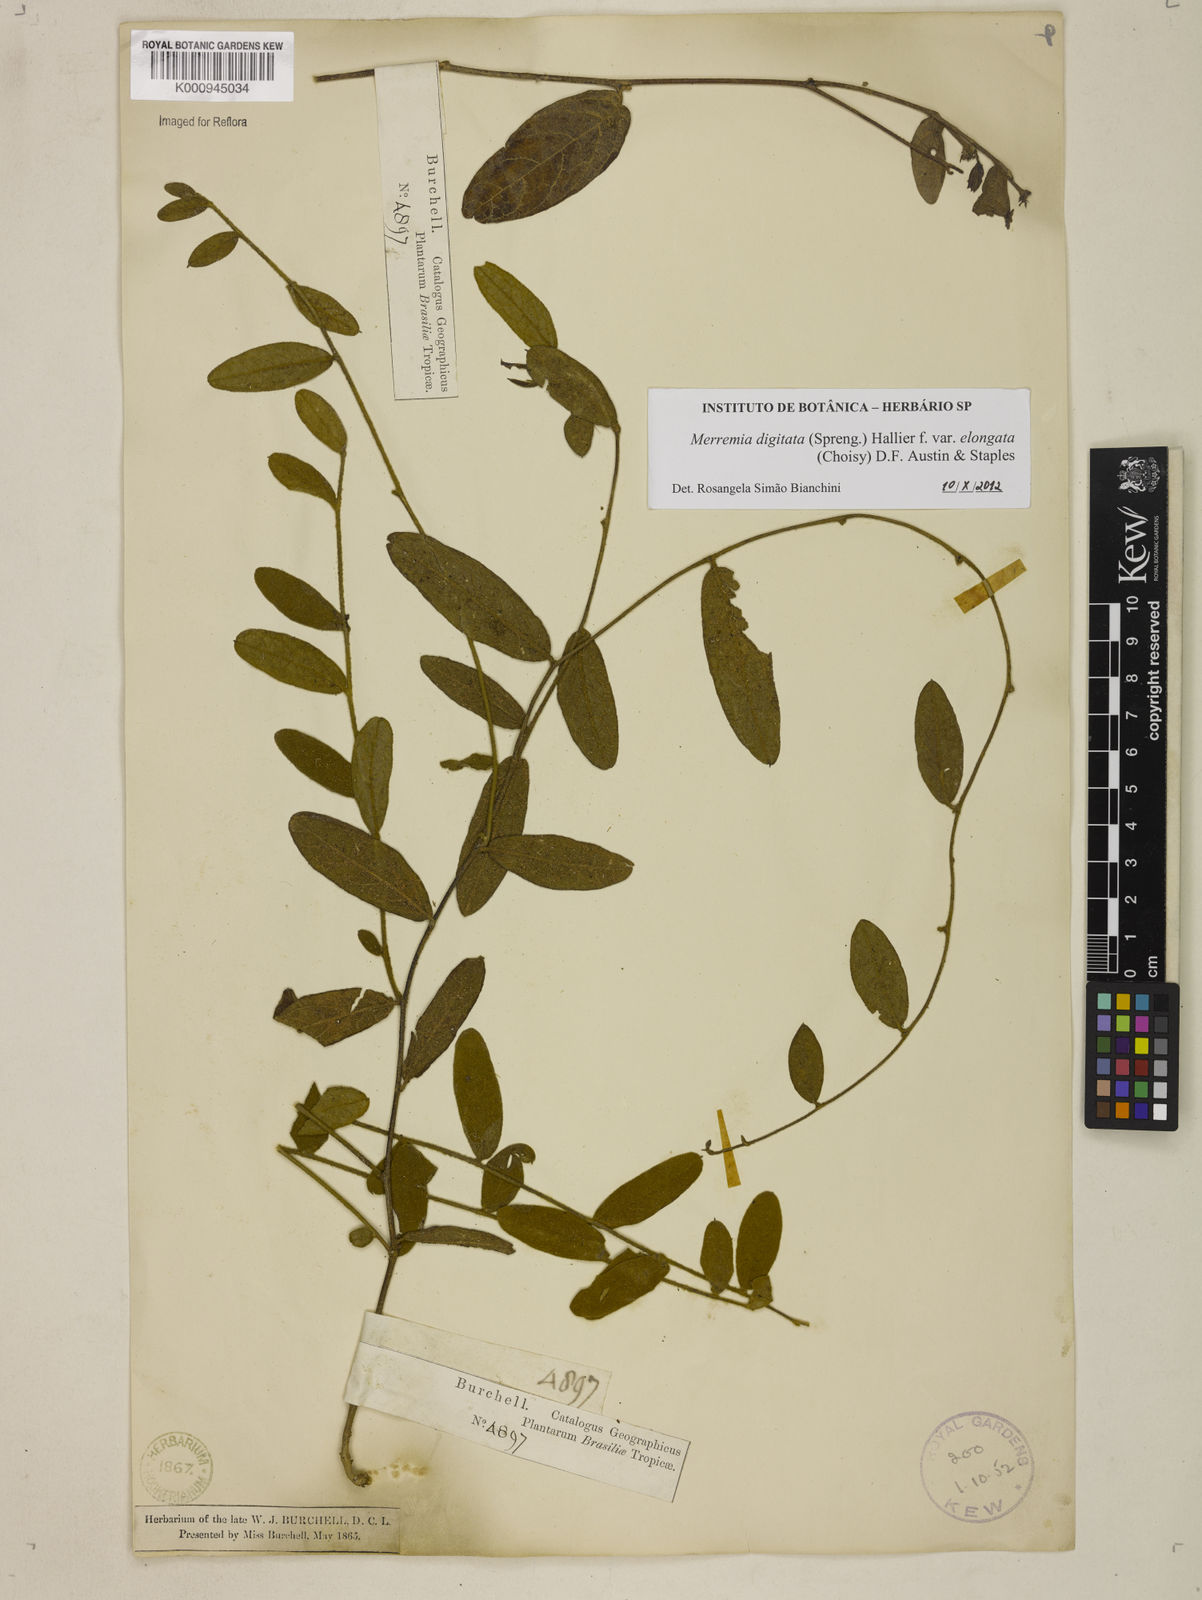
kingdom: Plantae
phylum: Tracheophyta
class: Magnoliopsida
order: Solanales
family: Convolvulaceae
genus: Distimake
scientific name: Distimake contorquens
